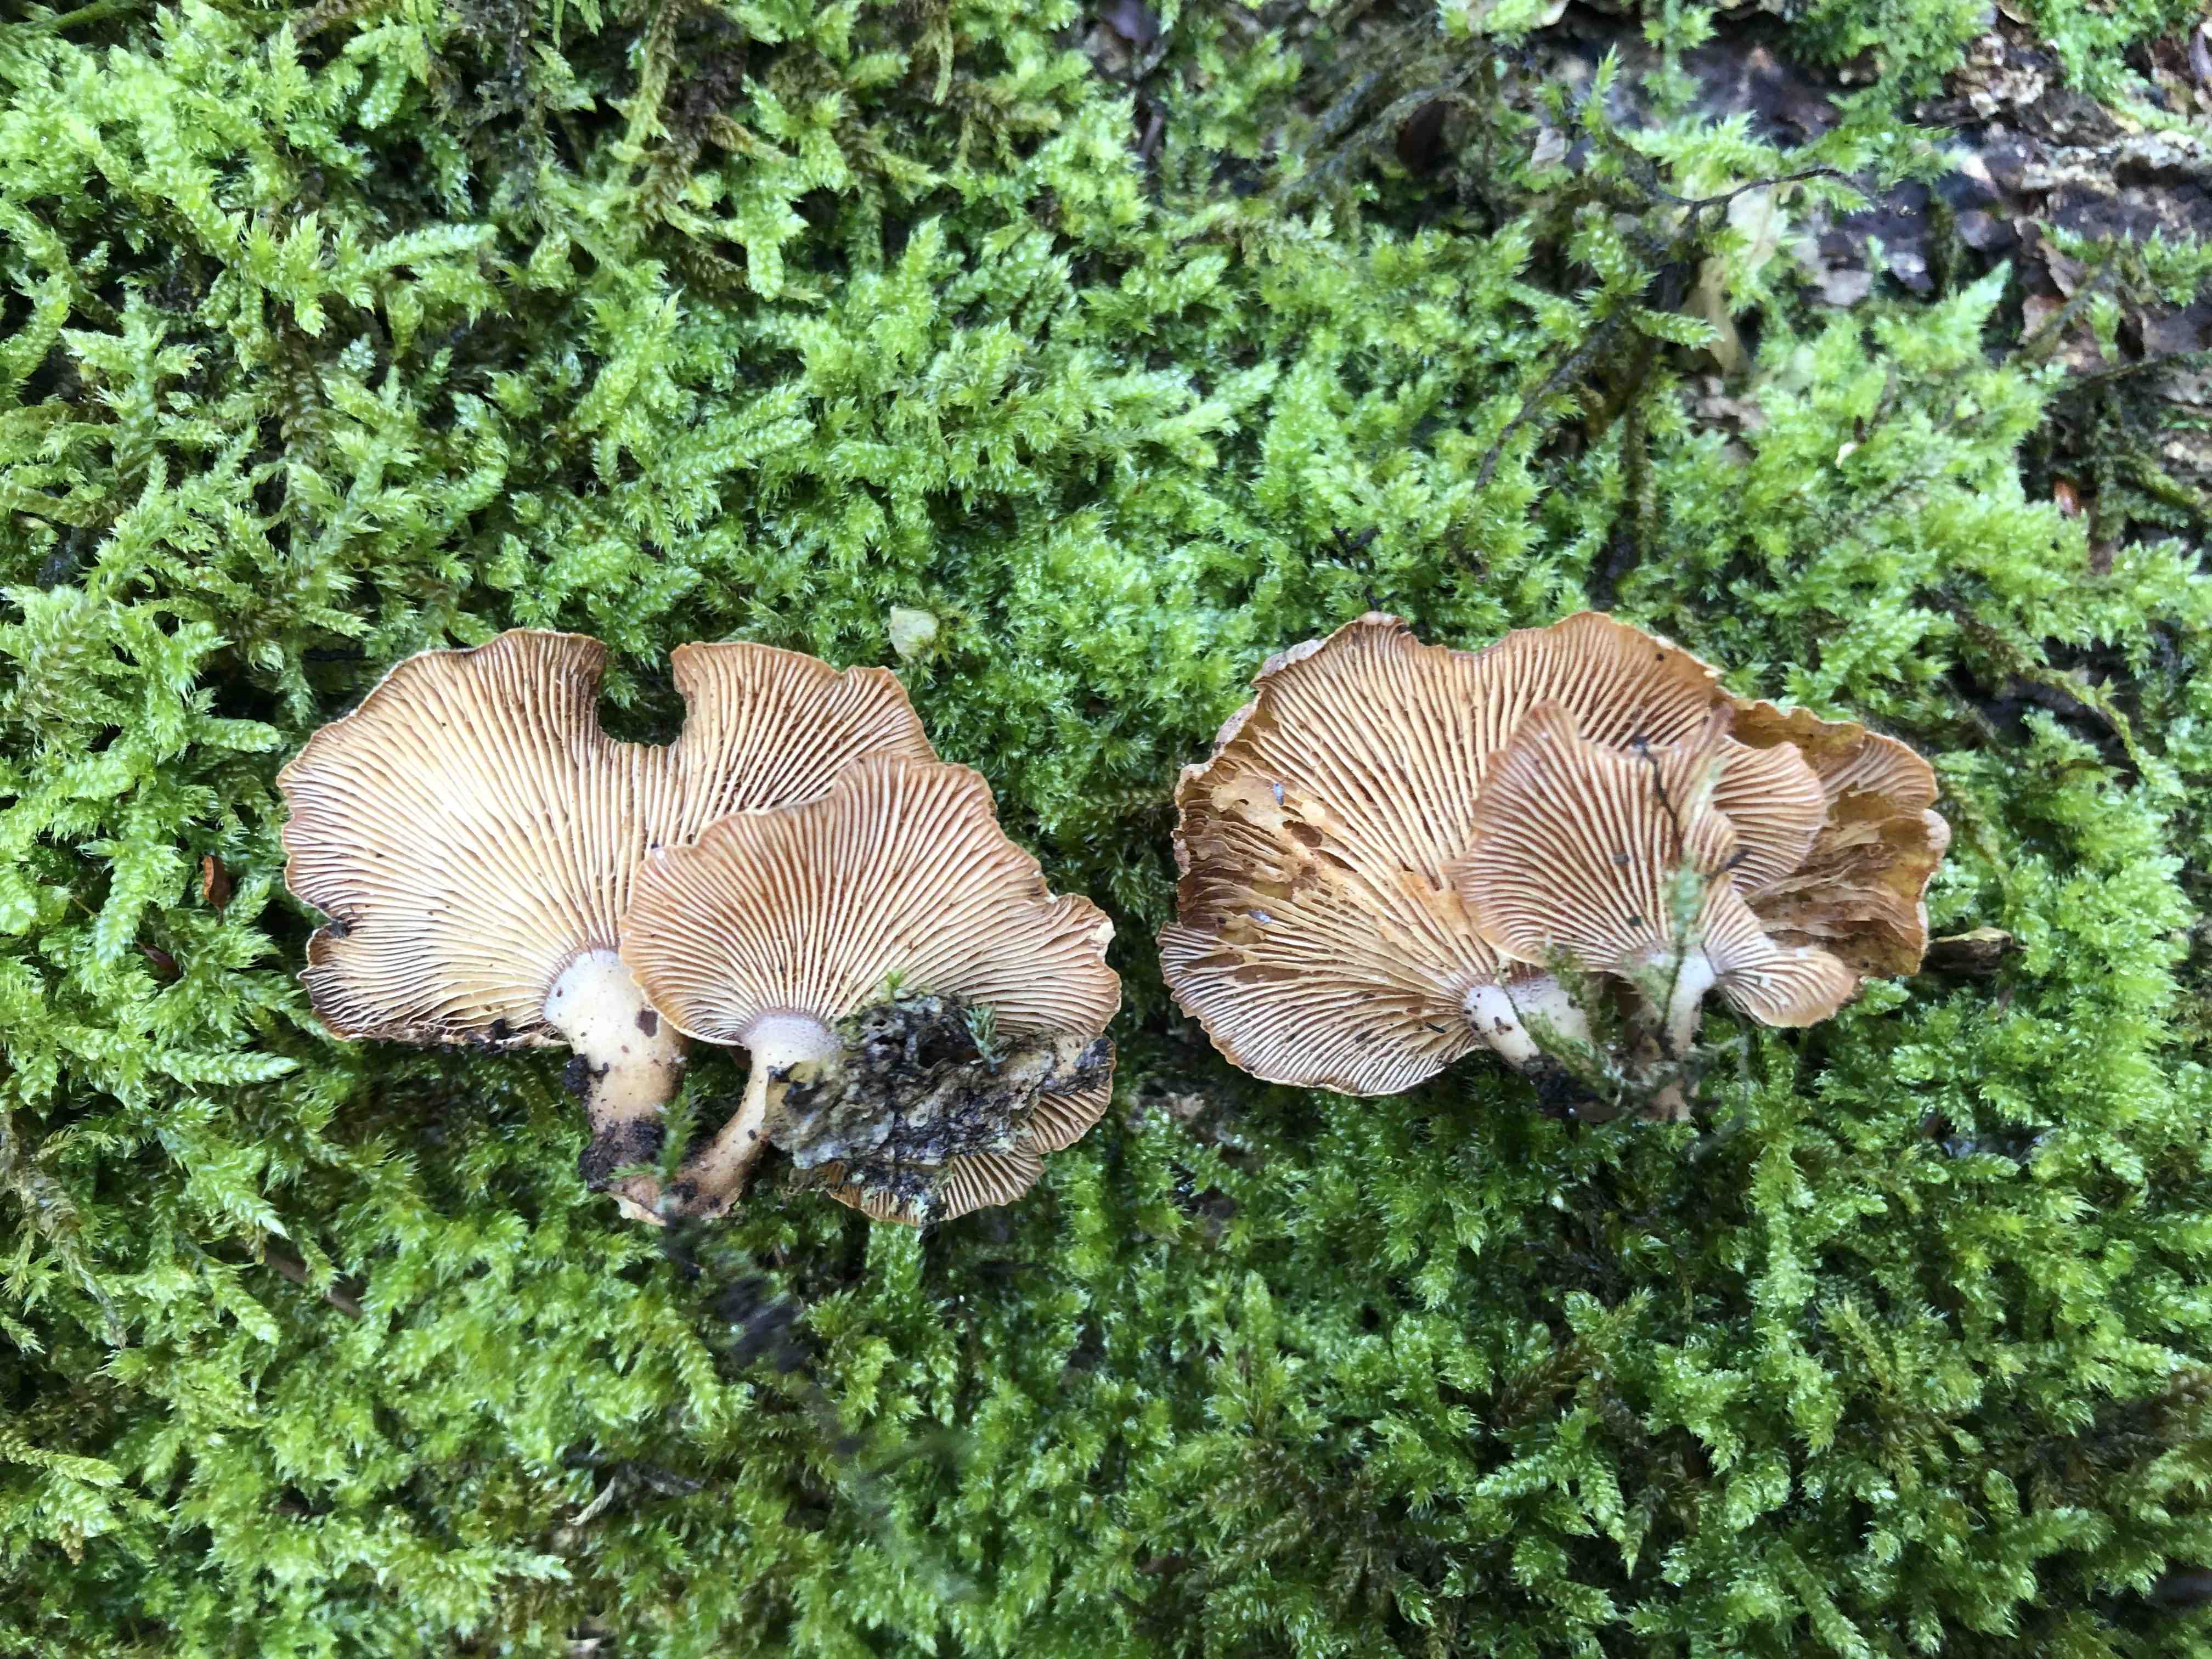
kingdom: Fungi
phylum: Basidiomycota
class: Agaricomycetes
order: Agaricales
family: Mycenaceae
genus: Panellus
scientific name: Panellus stipticus
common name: kliddet epaulethat
